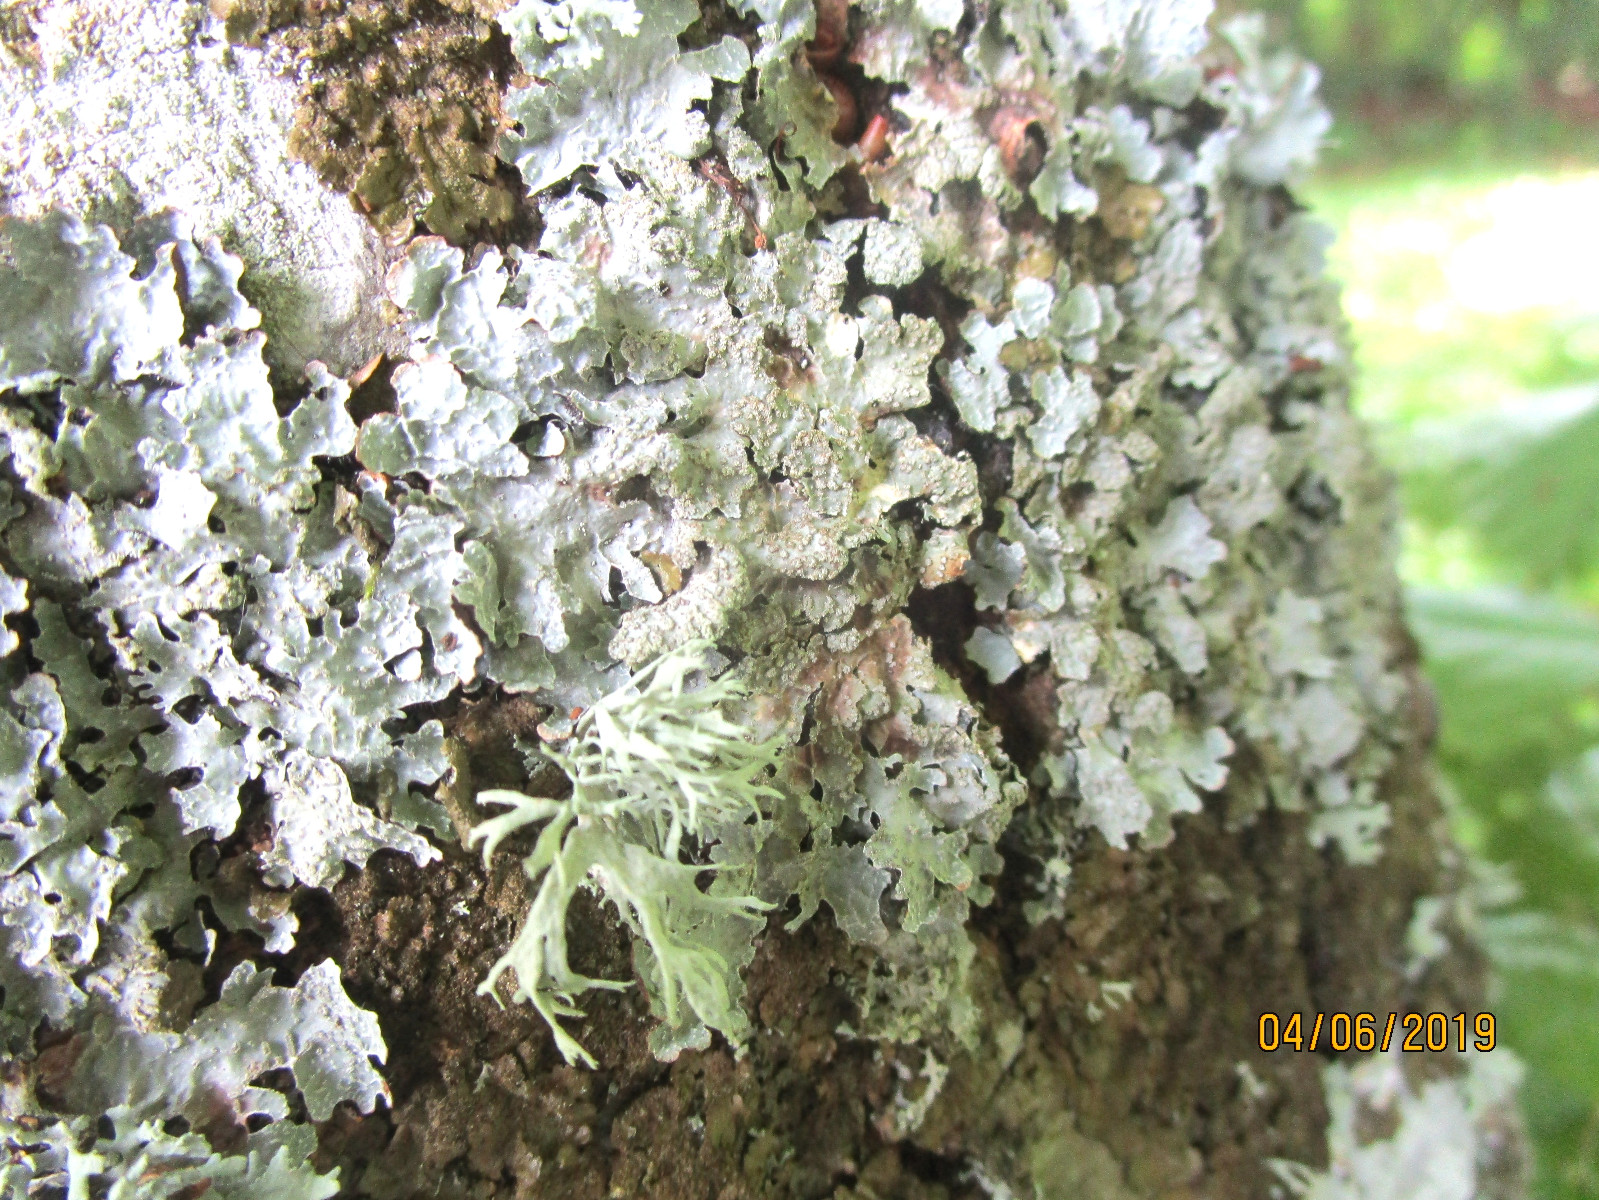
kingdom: Fungi
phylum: Ascomycota
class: Lecanoromycetes
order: Lecanorales
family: Parmeliaceae
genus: Parmelia
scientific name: Parmelia sulcata
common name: rynket skållav
